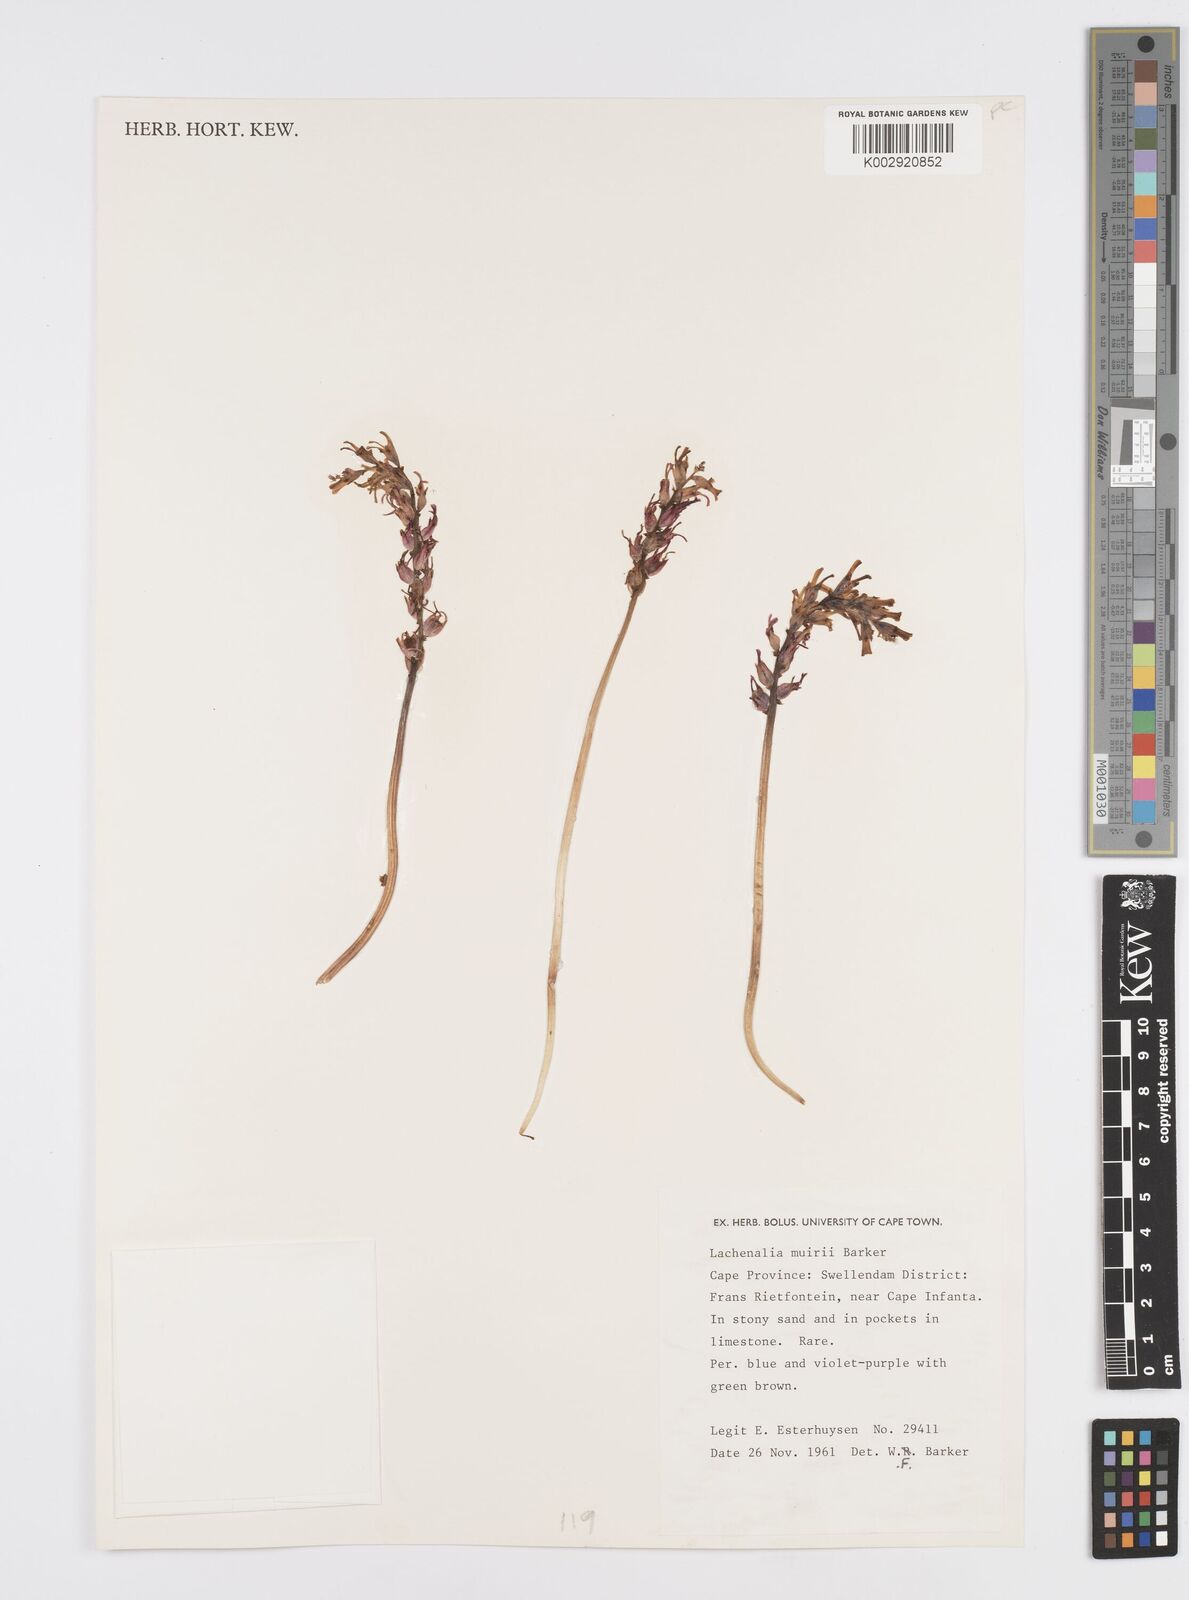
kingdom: Plantae
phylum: Tracheophyta
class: Liliopsida
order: Asparagales
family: Asparagaceae
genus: Lachenalia
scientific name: Lachenalia sessiliflora
